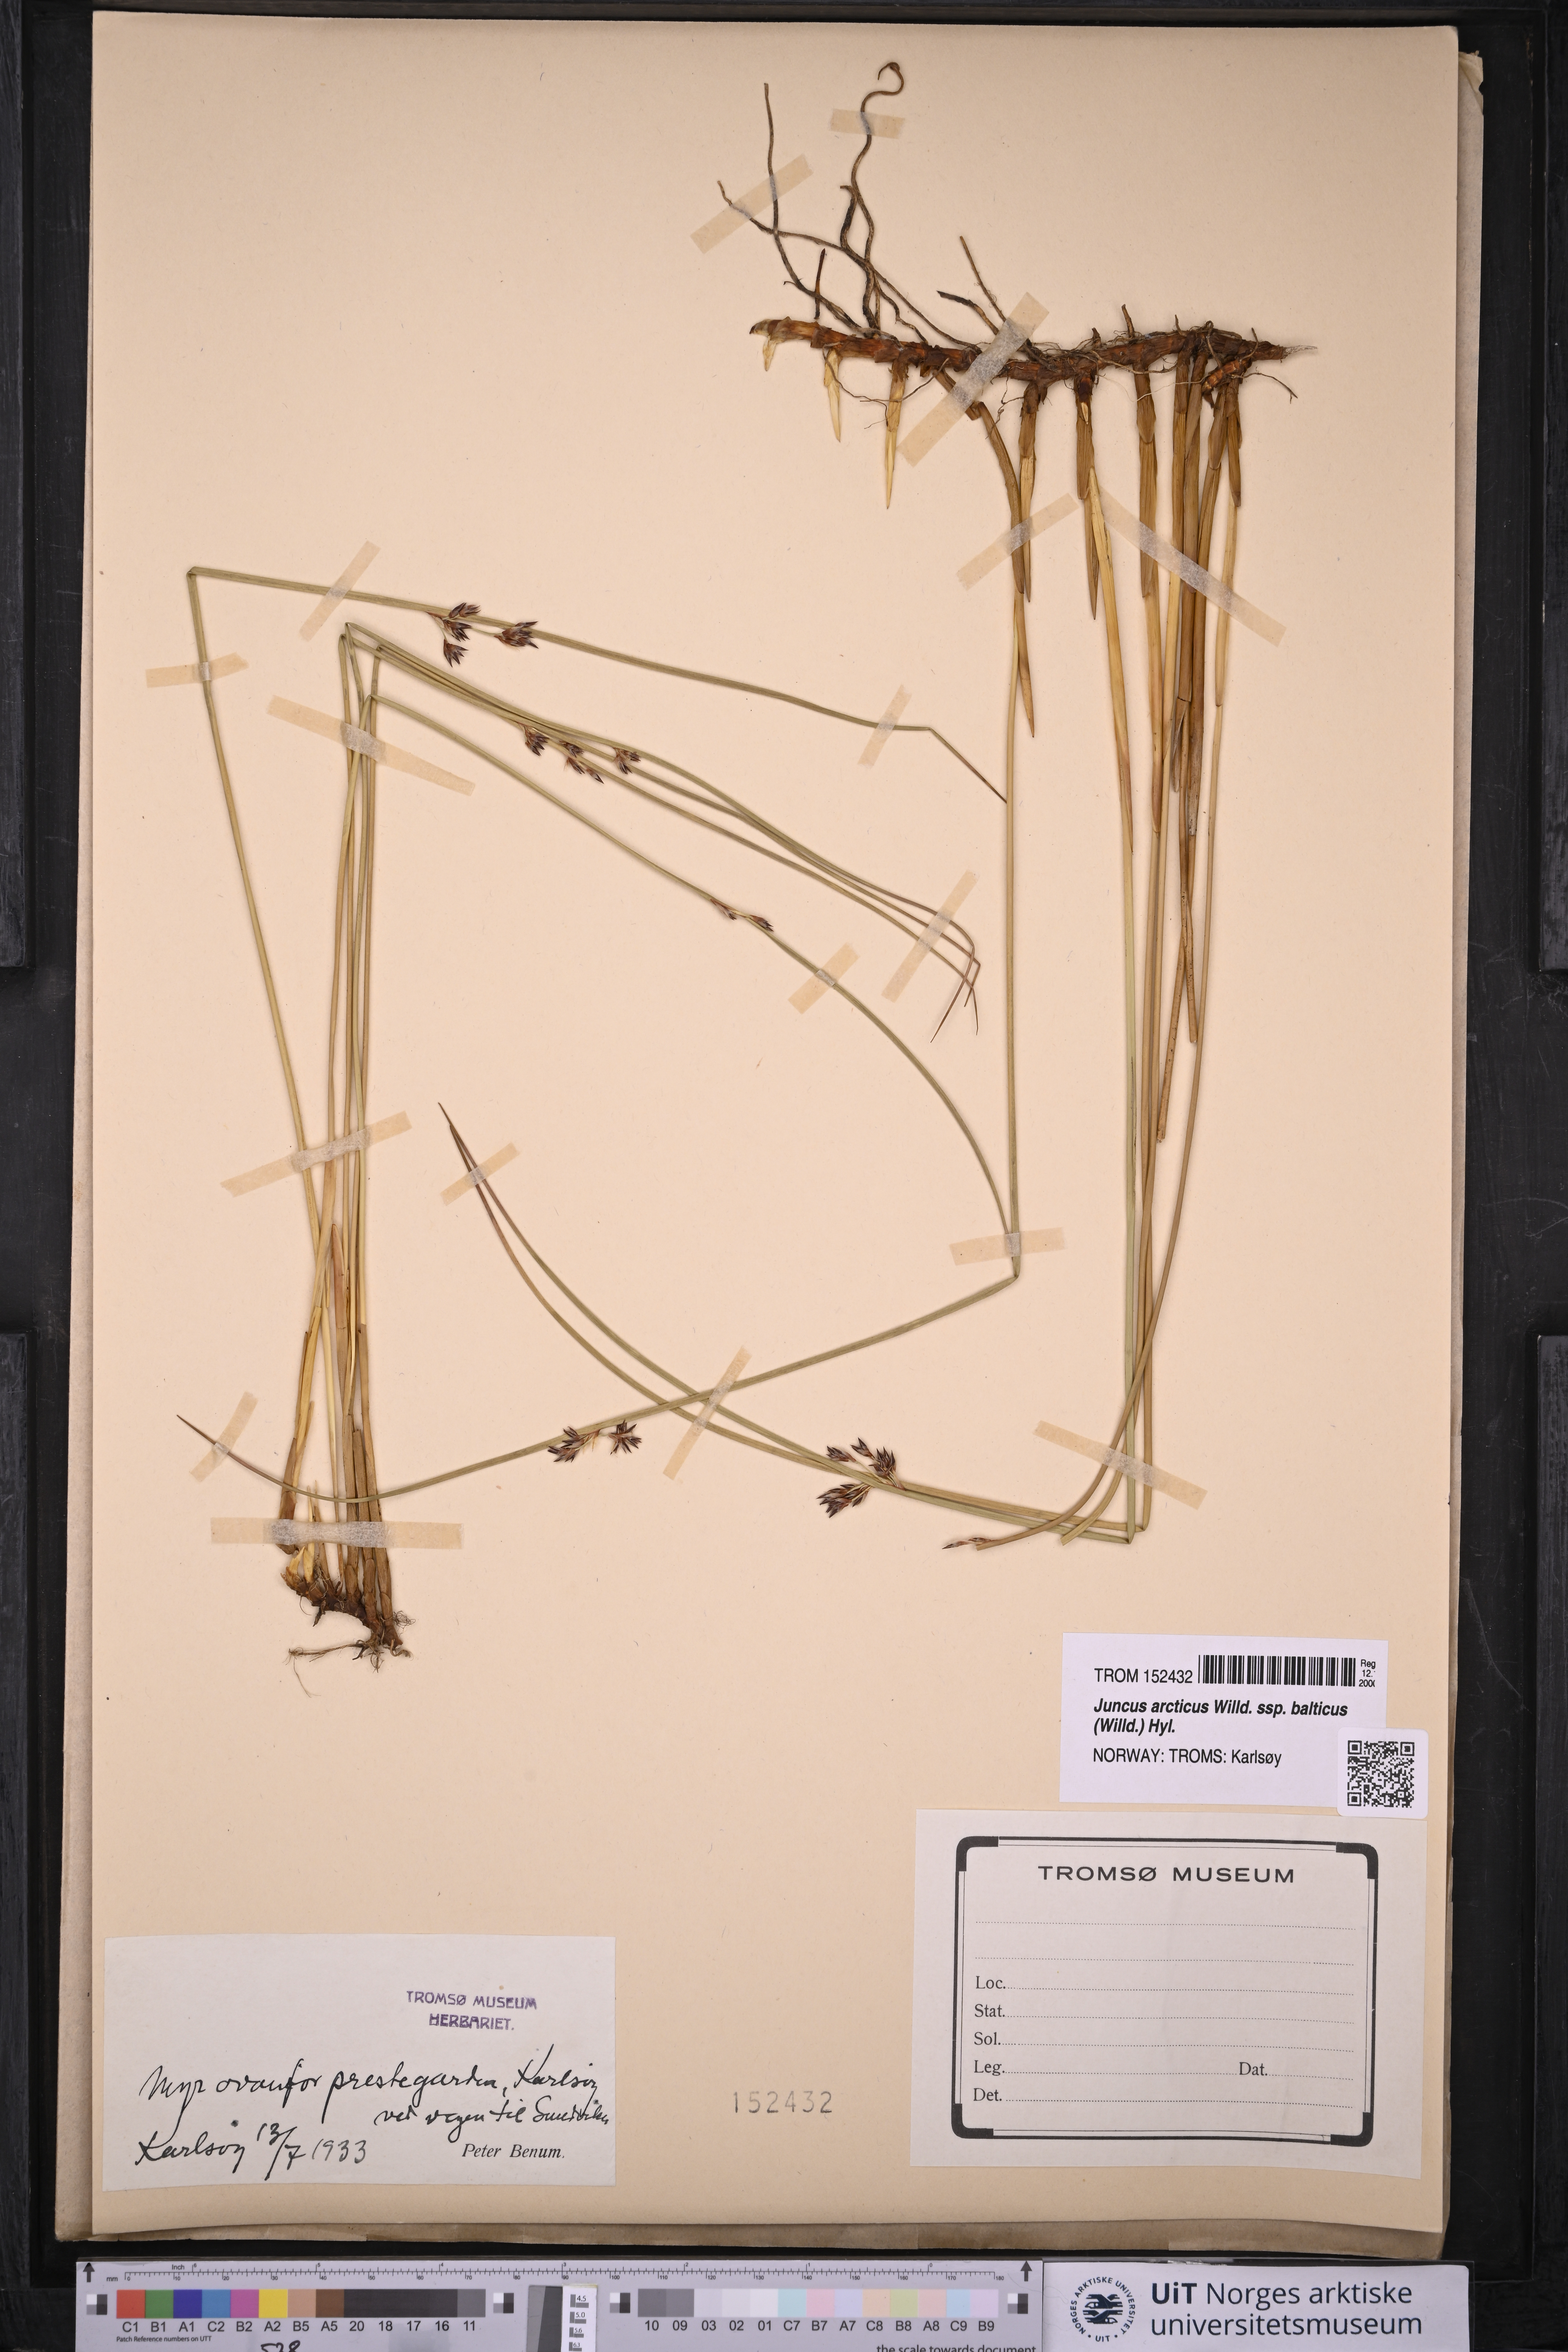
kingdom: Plantae
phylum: Tracheophyta
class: Liliopsida
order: Poales
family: Juncaceae
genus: Juncus
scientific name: Juncus balticus
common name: Baltic rush
